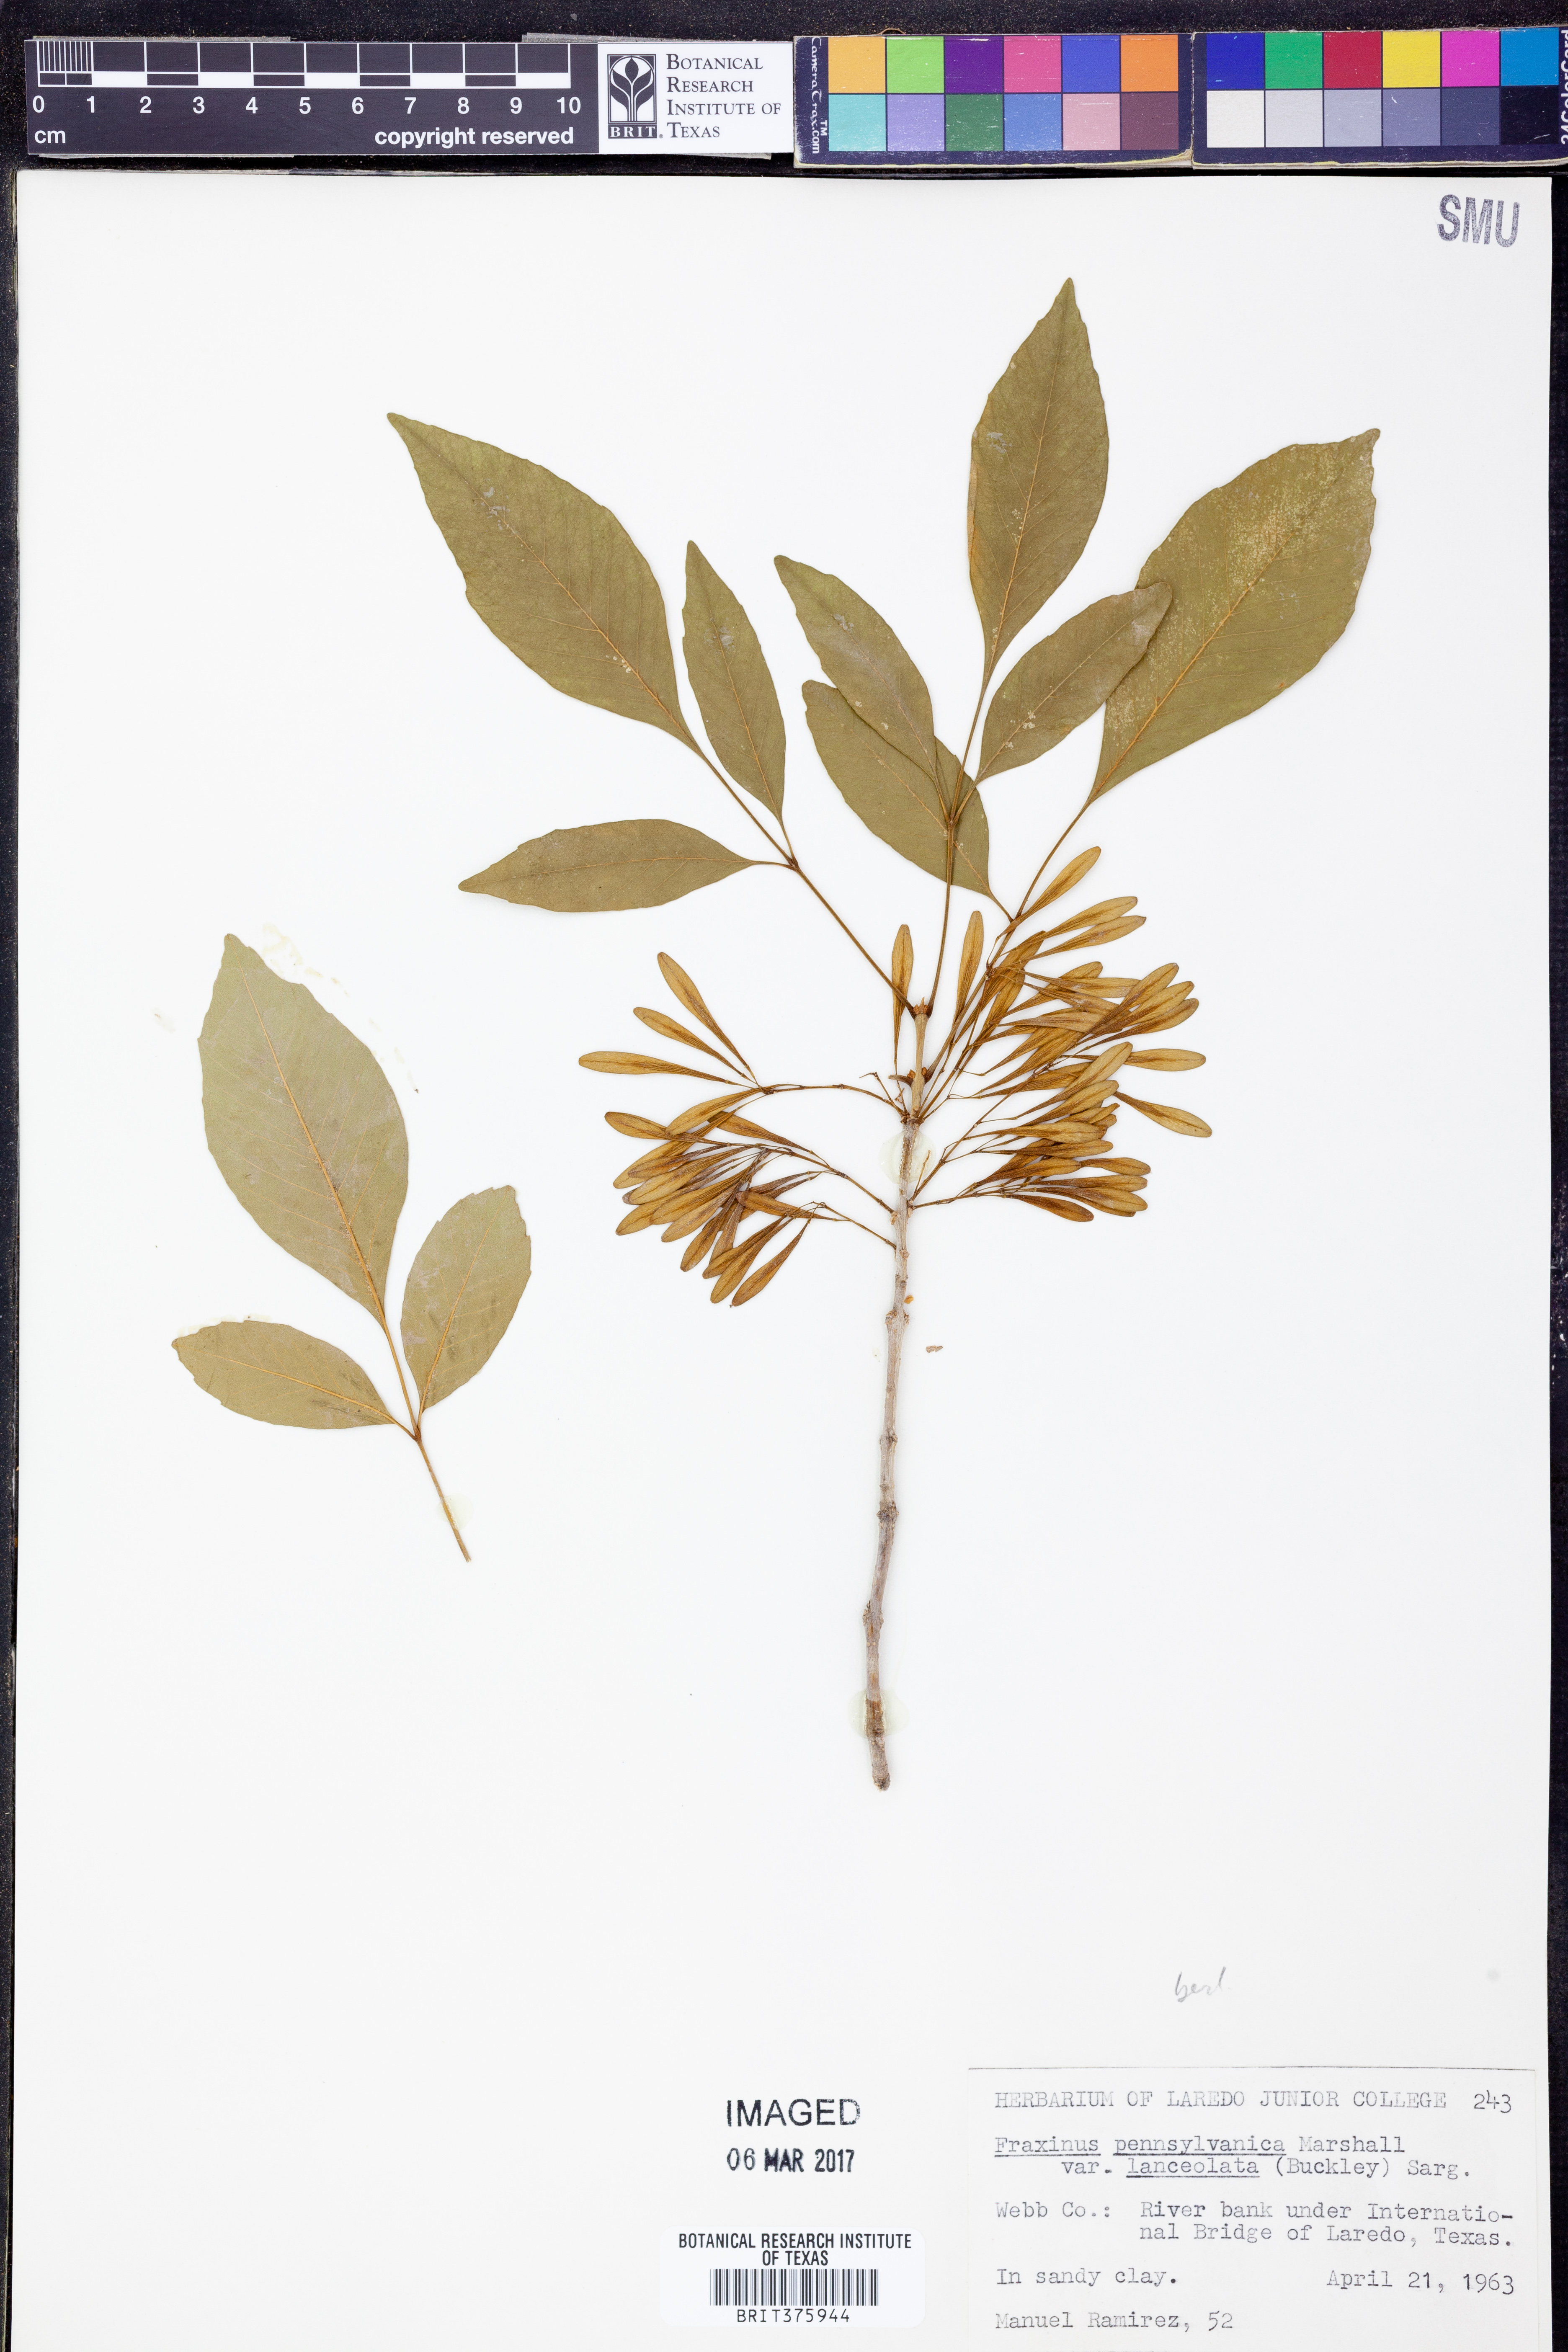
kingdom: Plantae
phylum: Tracheophyta
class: Magnoliopsida
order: Lamiales
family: Oleaceae
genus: Fraxinus
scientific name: Fraxinus berlandieriana
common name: Berlandier ash
